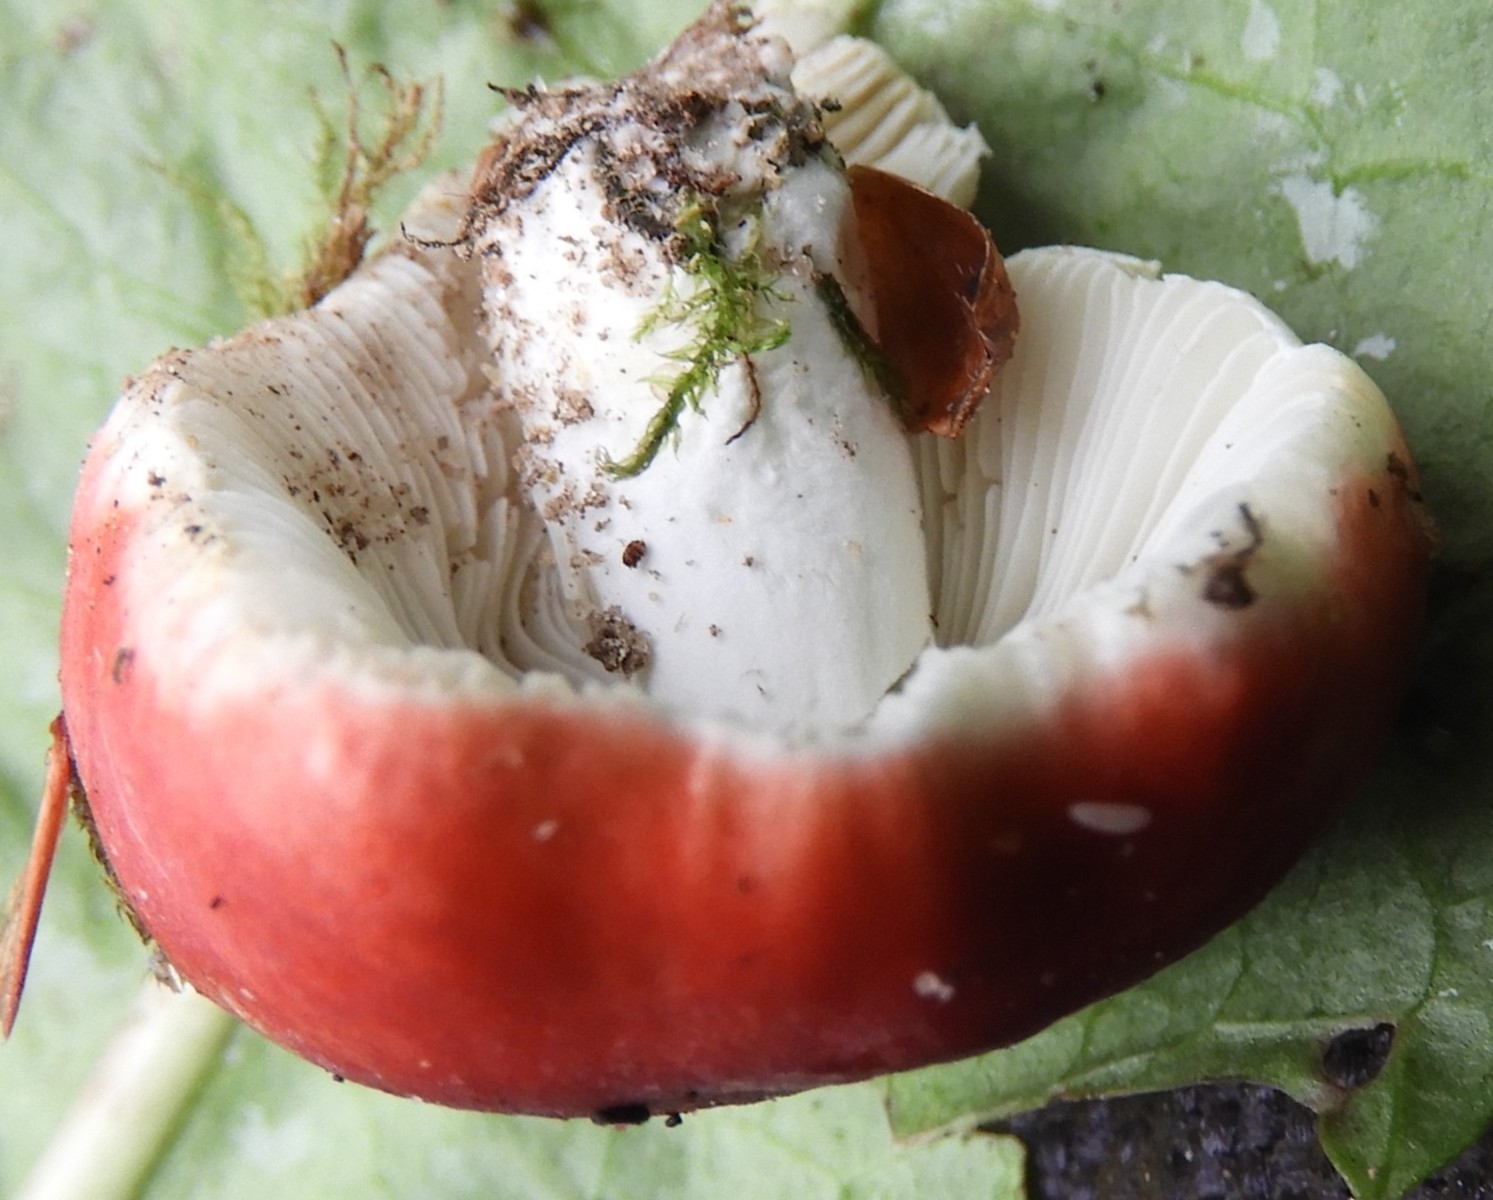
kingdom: Fungi
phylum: Basidiomycota
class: Agaricomycetes
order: Russulales
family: Russulaceae
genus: Russula
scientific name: Russula
